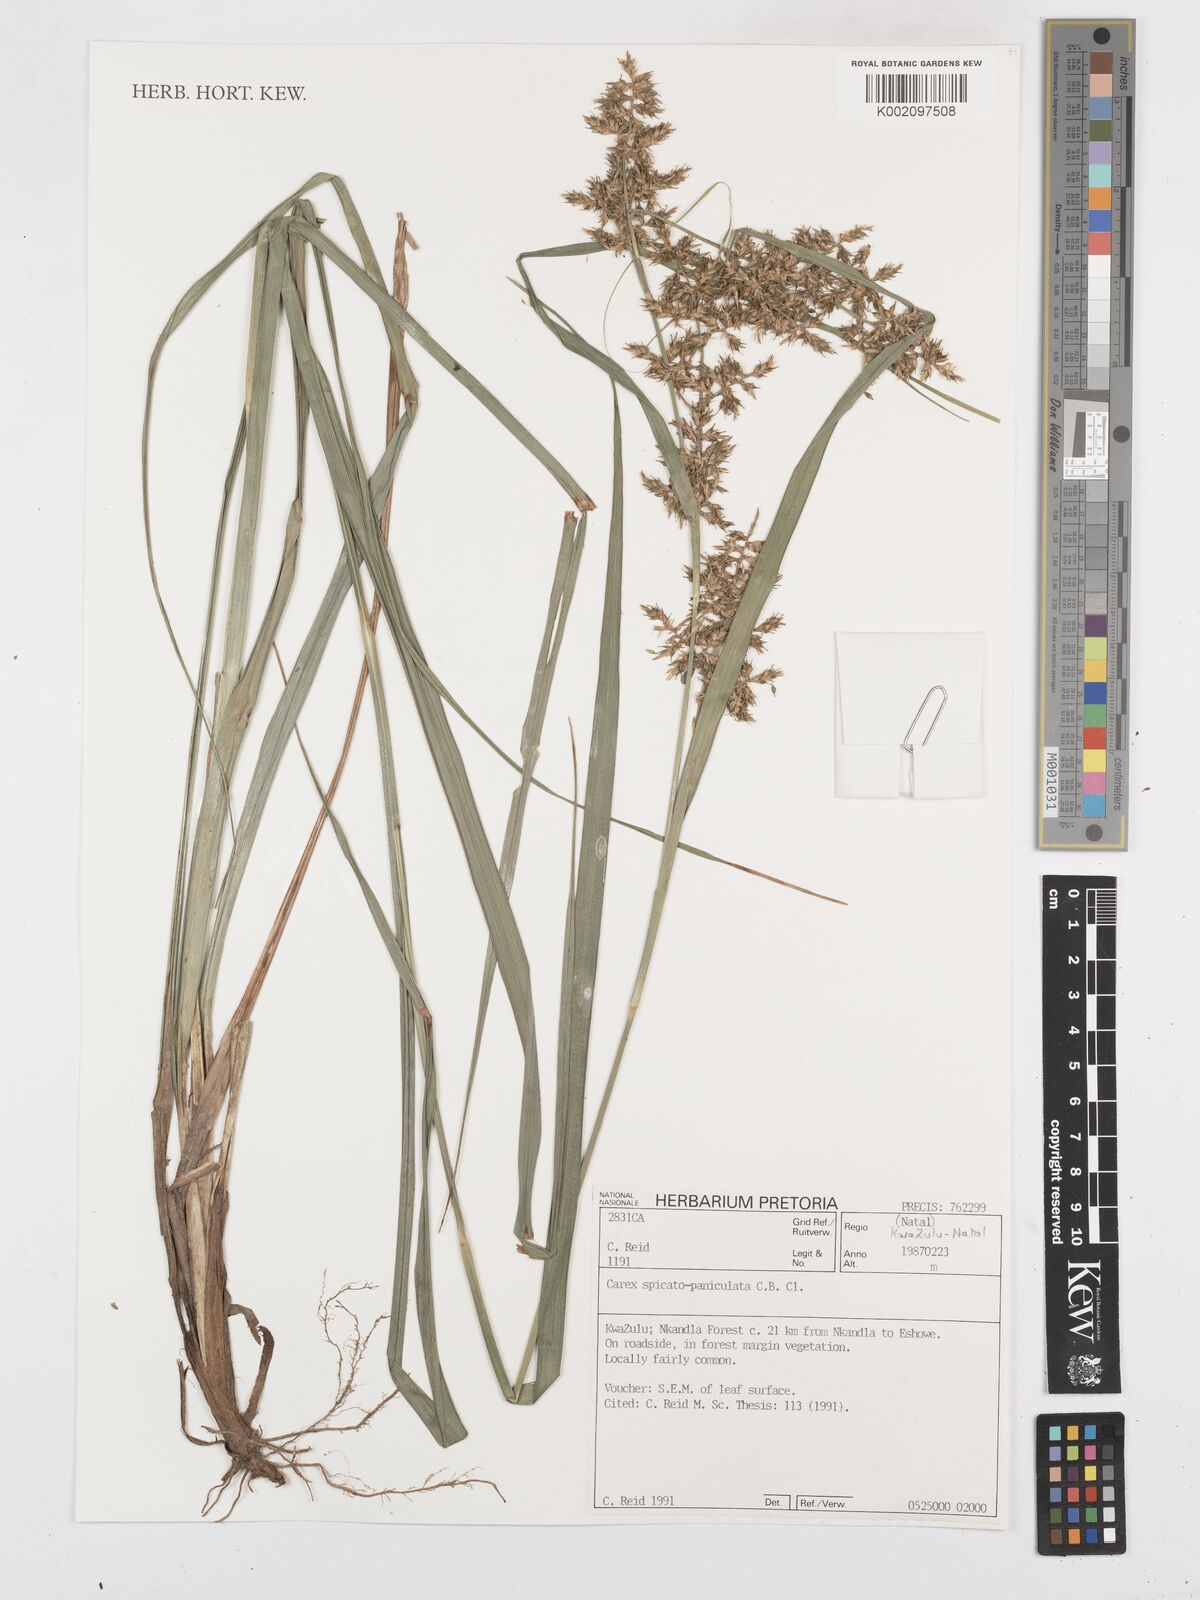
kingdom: Plantae
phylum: Tracheophyta
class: Liliopsida
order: Poales
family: Cyperaceae
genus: Carex
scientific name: Carex spicatopaniculata
